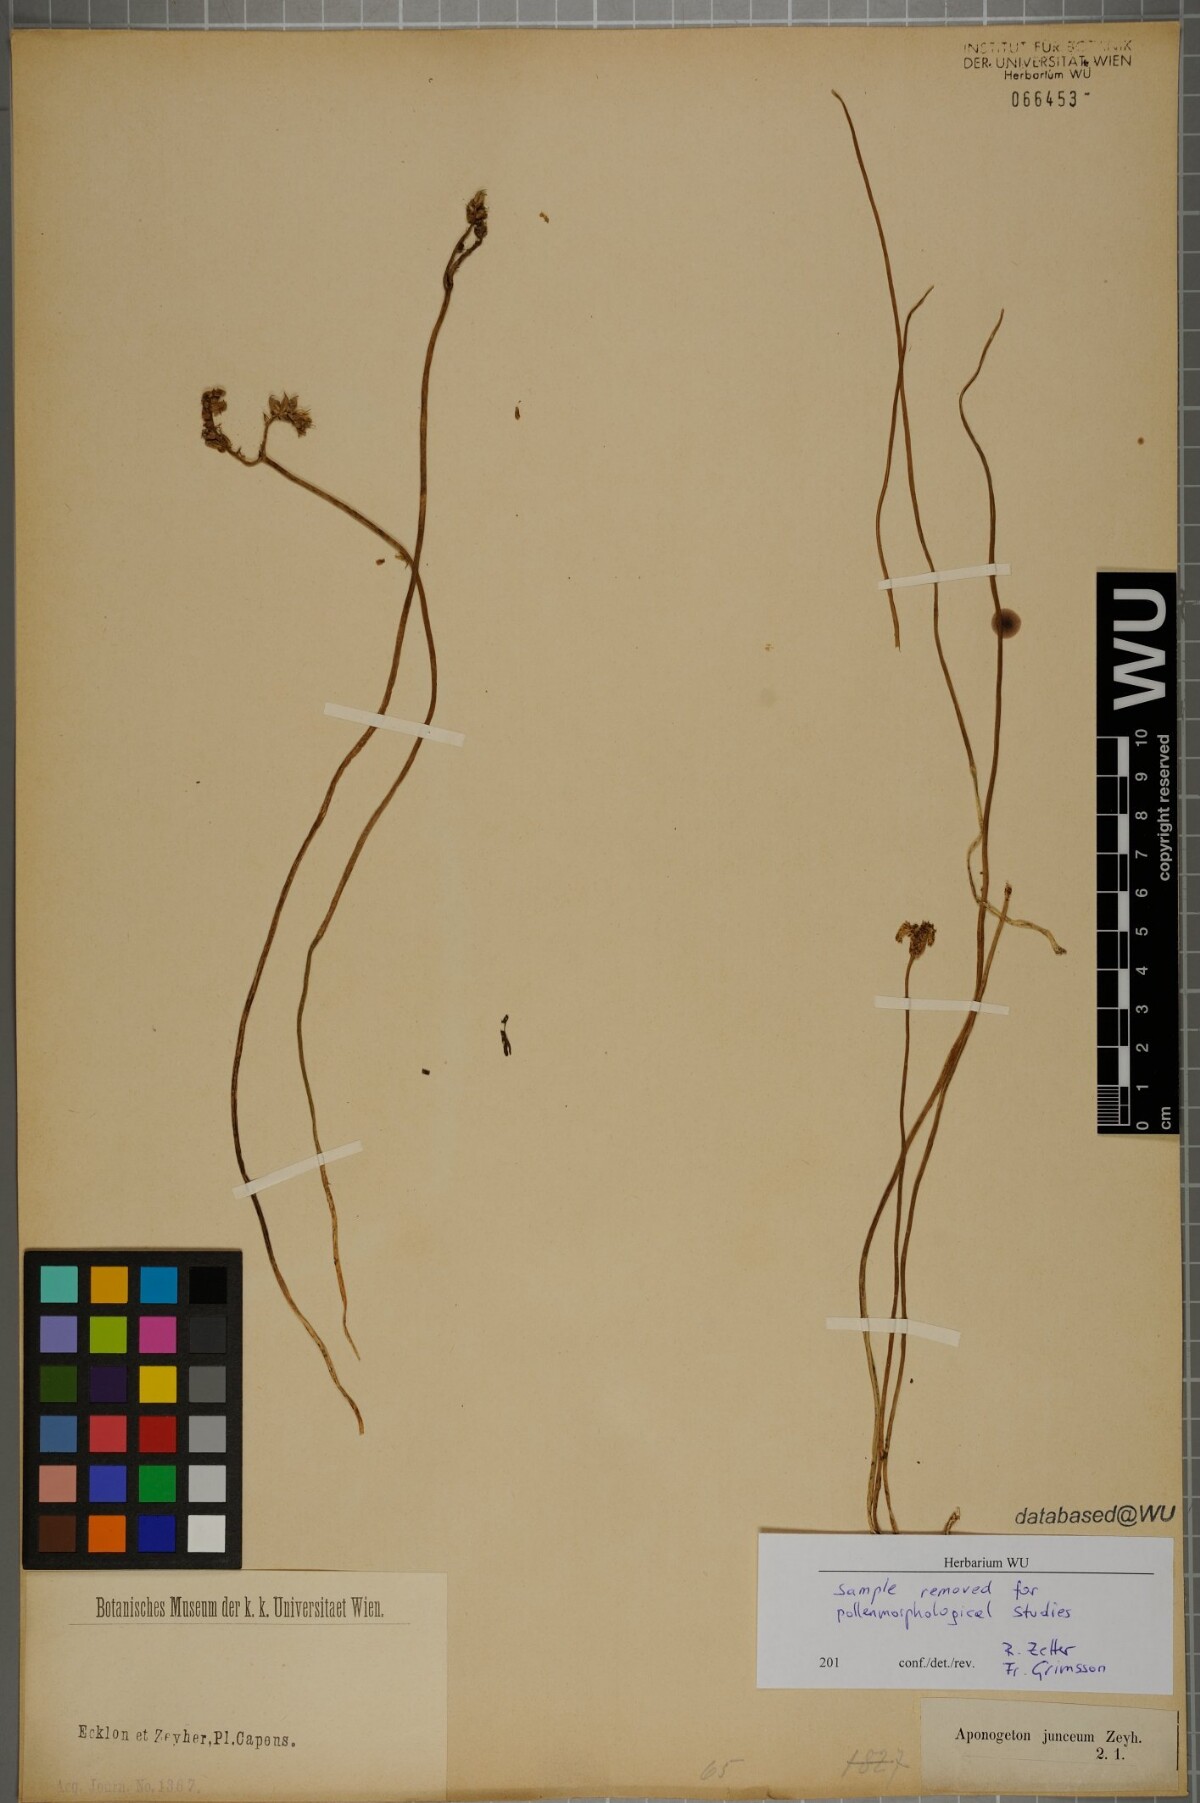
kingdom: Plantae
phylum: Tracheophyta
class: Liliopsida
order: Alismatales
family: Aponogetonaceae
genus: Aponogeton
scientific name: Aponogeton junceus
